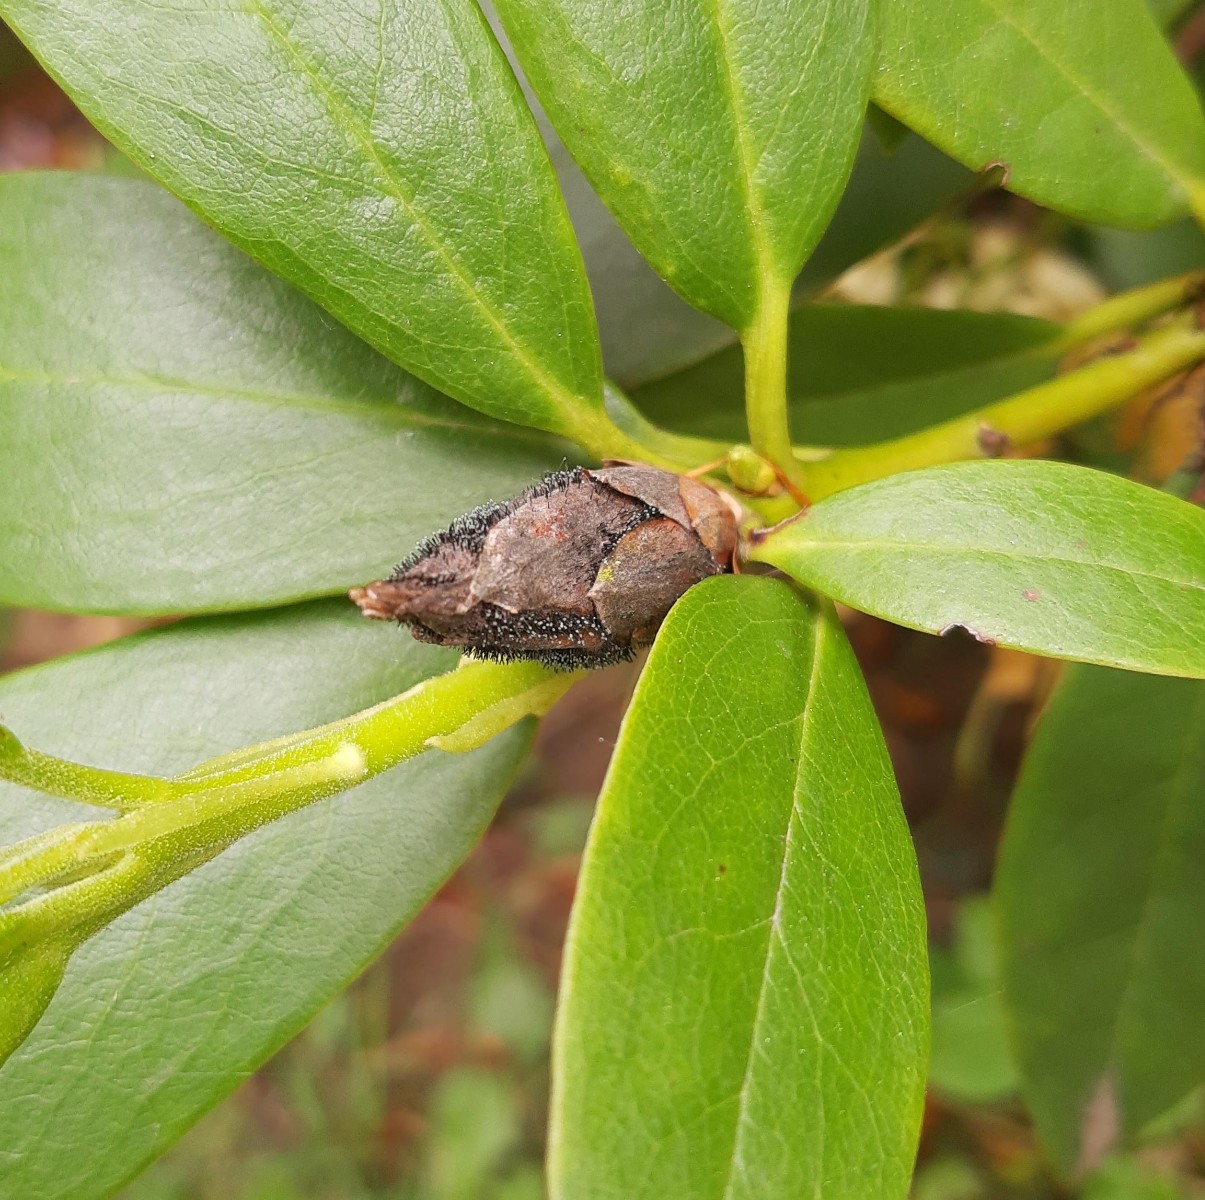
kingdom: Fungi
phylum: Ascomycota
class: Dothideomycetes
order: Pleosporales
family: Melanommataceae
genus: Seifertia
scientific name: Seifertia azaleae
